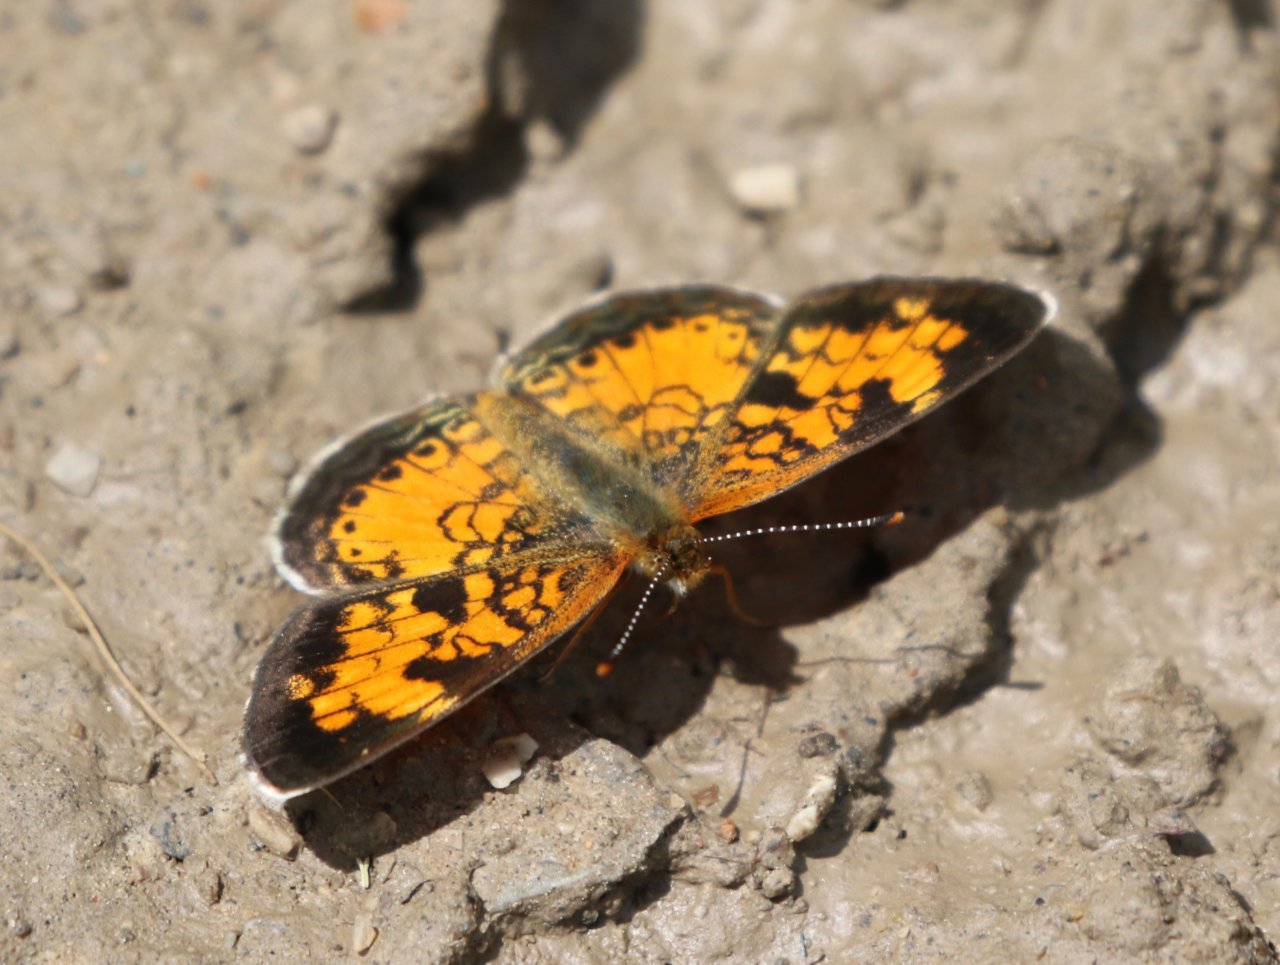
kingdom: Animalia
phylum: Arthropoda
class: Insecta
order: Lepidoptera
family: Nymphalidae
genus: Phyciodes
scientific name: Phyciodes tharos
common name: Northern Crescent
